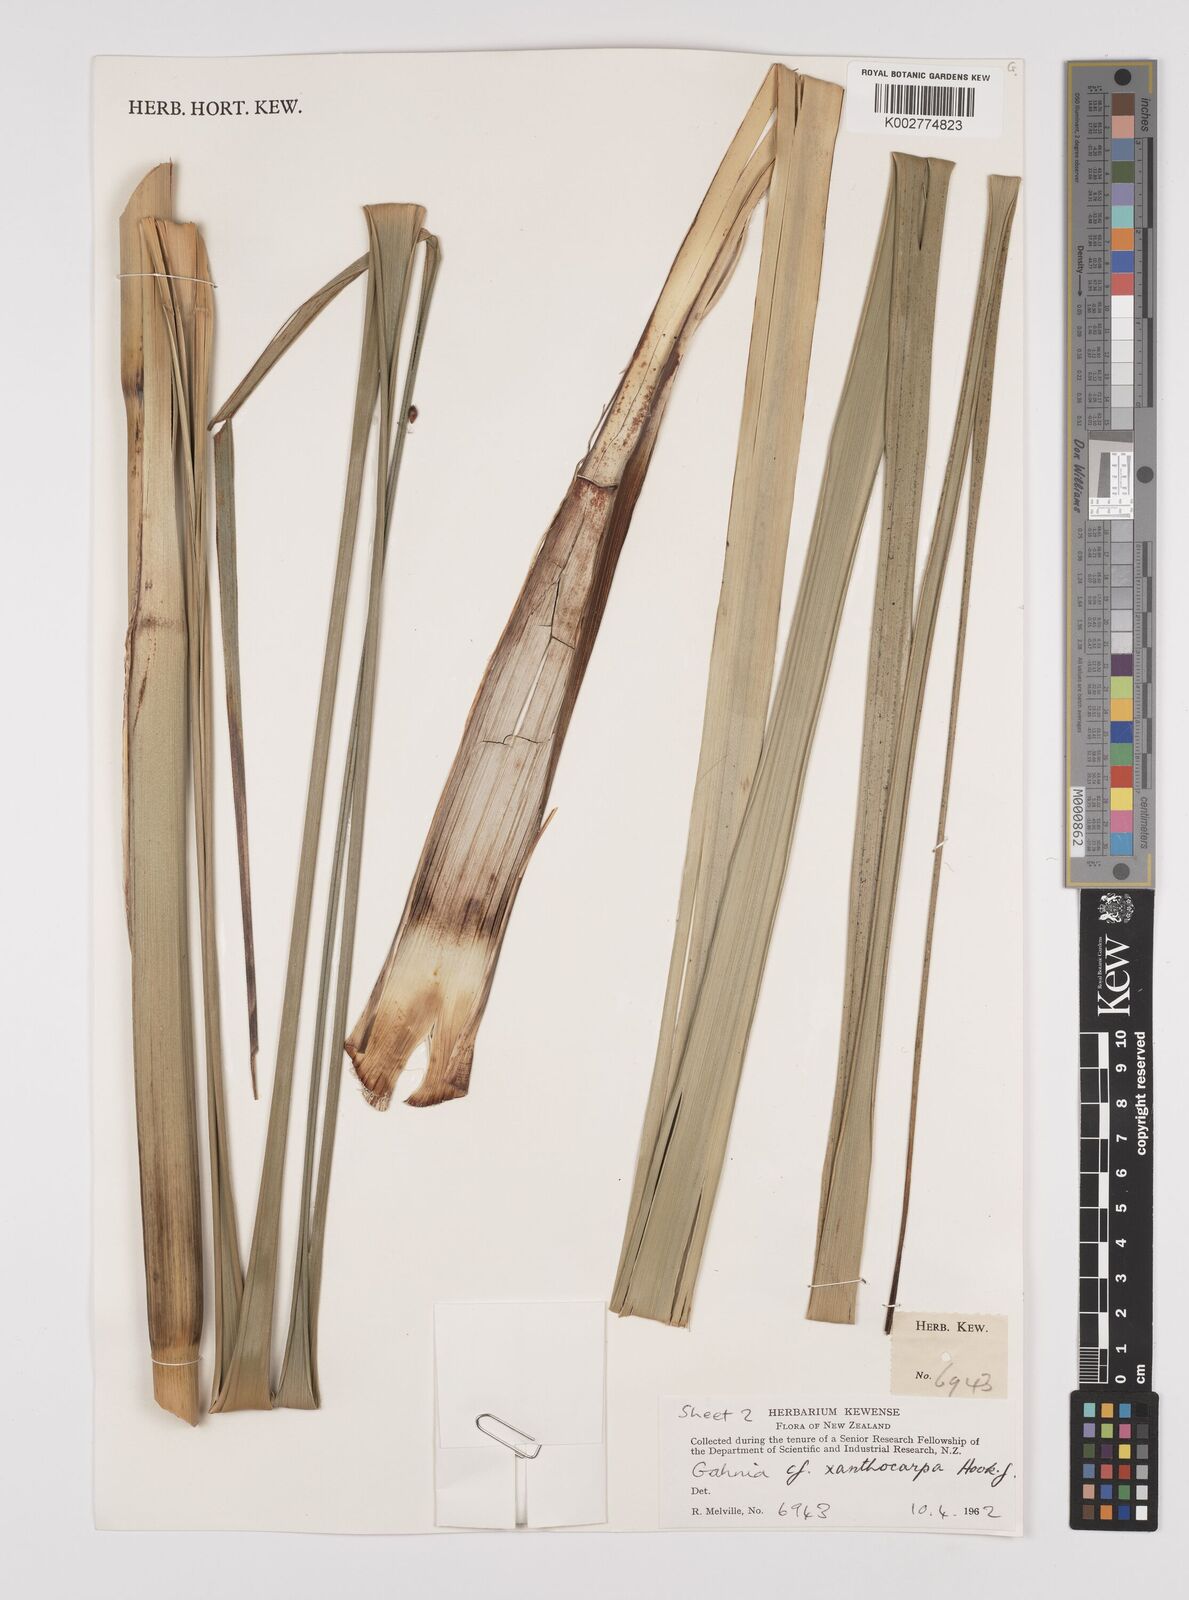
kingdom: Plantae
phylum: Tracheophyta
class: Liliopsida
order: Poales
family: Cyperaceae
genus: Gahnia
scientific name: Gahnia xanthocarpa
